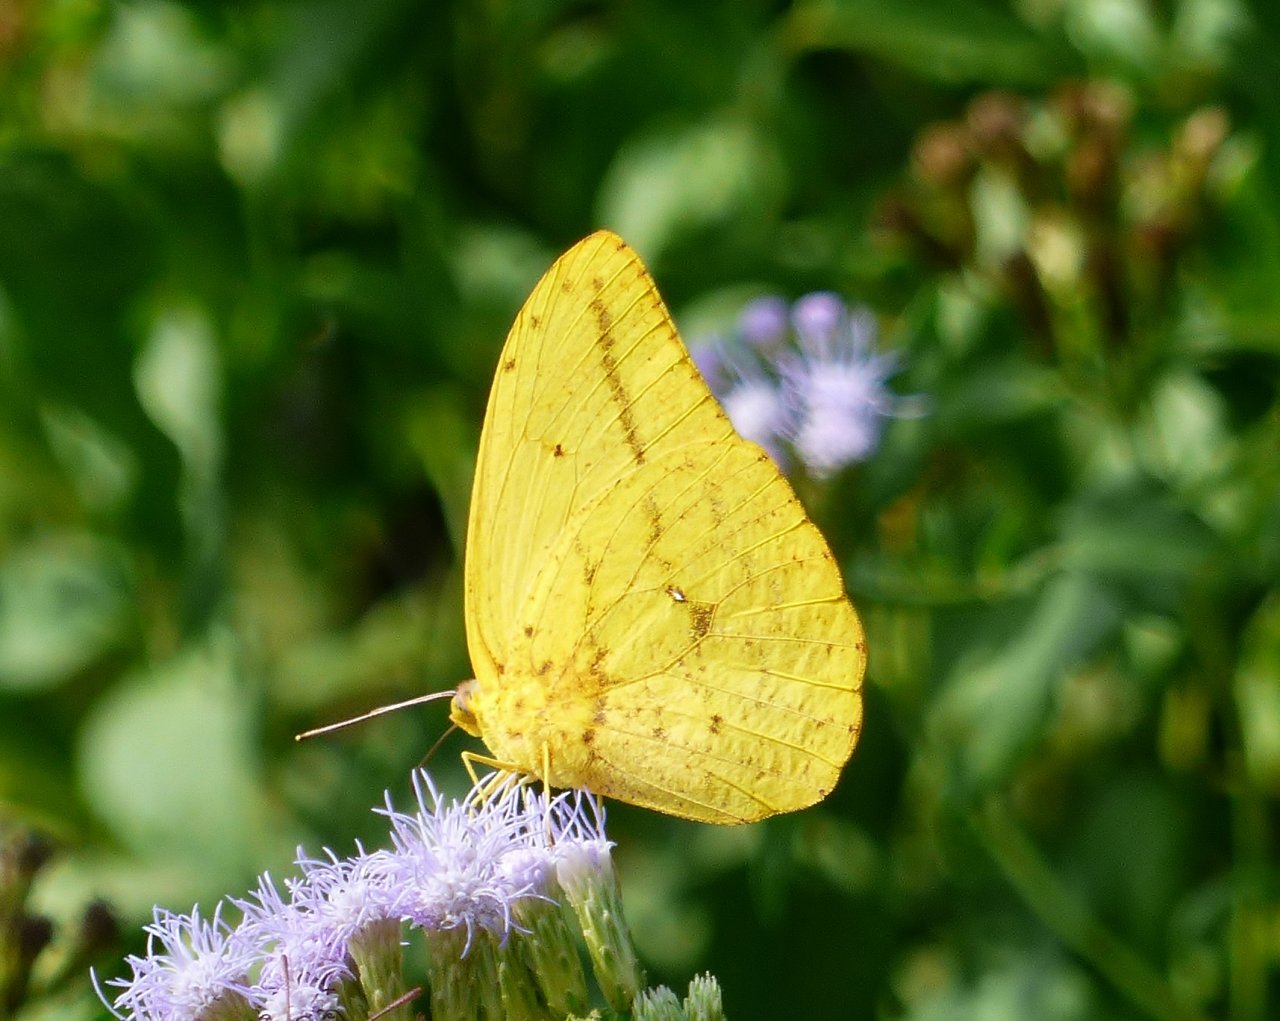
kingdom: Animalia
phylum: Arthropoda
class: Insecta
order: Lepidoptera
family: Pieridae
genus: Phoebis
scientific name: Phoebis agarithe
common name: Large Orange Sulphur
